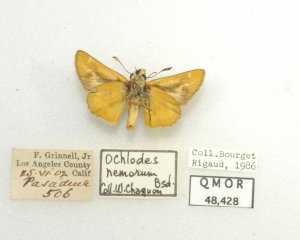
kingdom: Animalia
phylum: Arthropoda
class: Insecta
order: Lepidoptera
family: Hesperiidae
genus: Ochlodes
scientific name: Ochlodes agricola
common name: Rural Skipper
